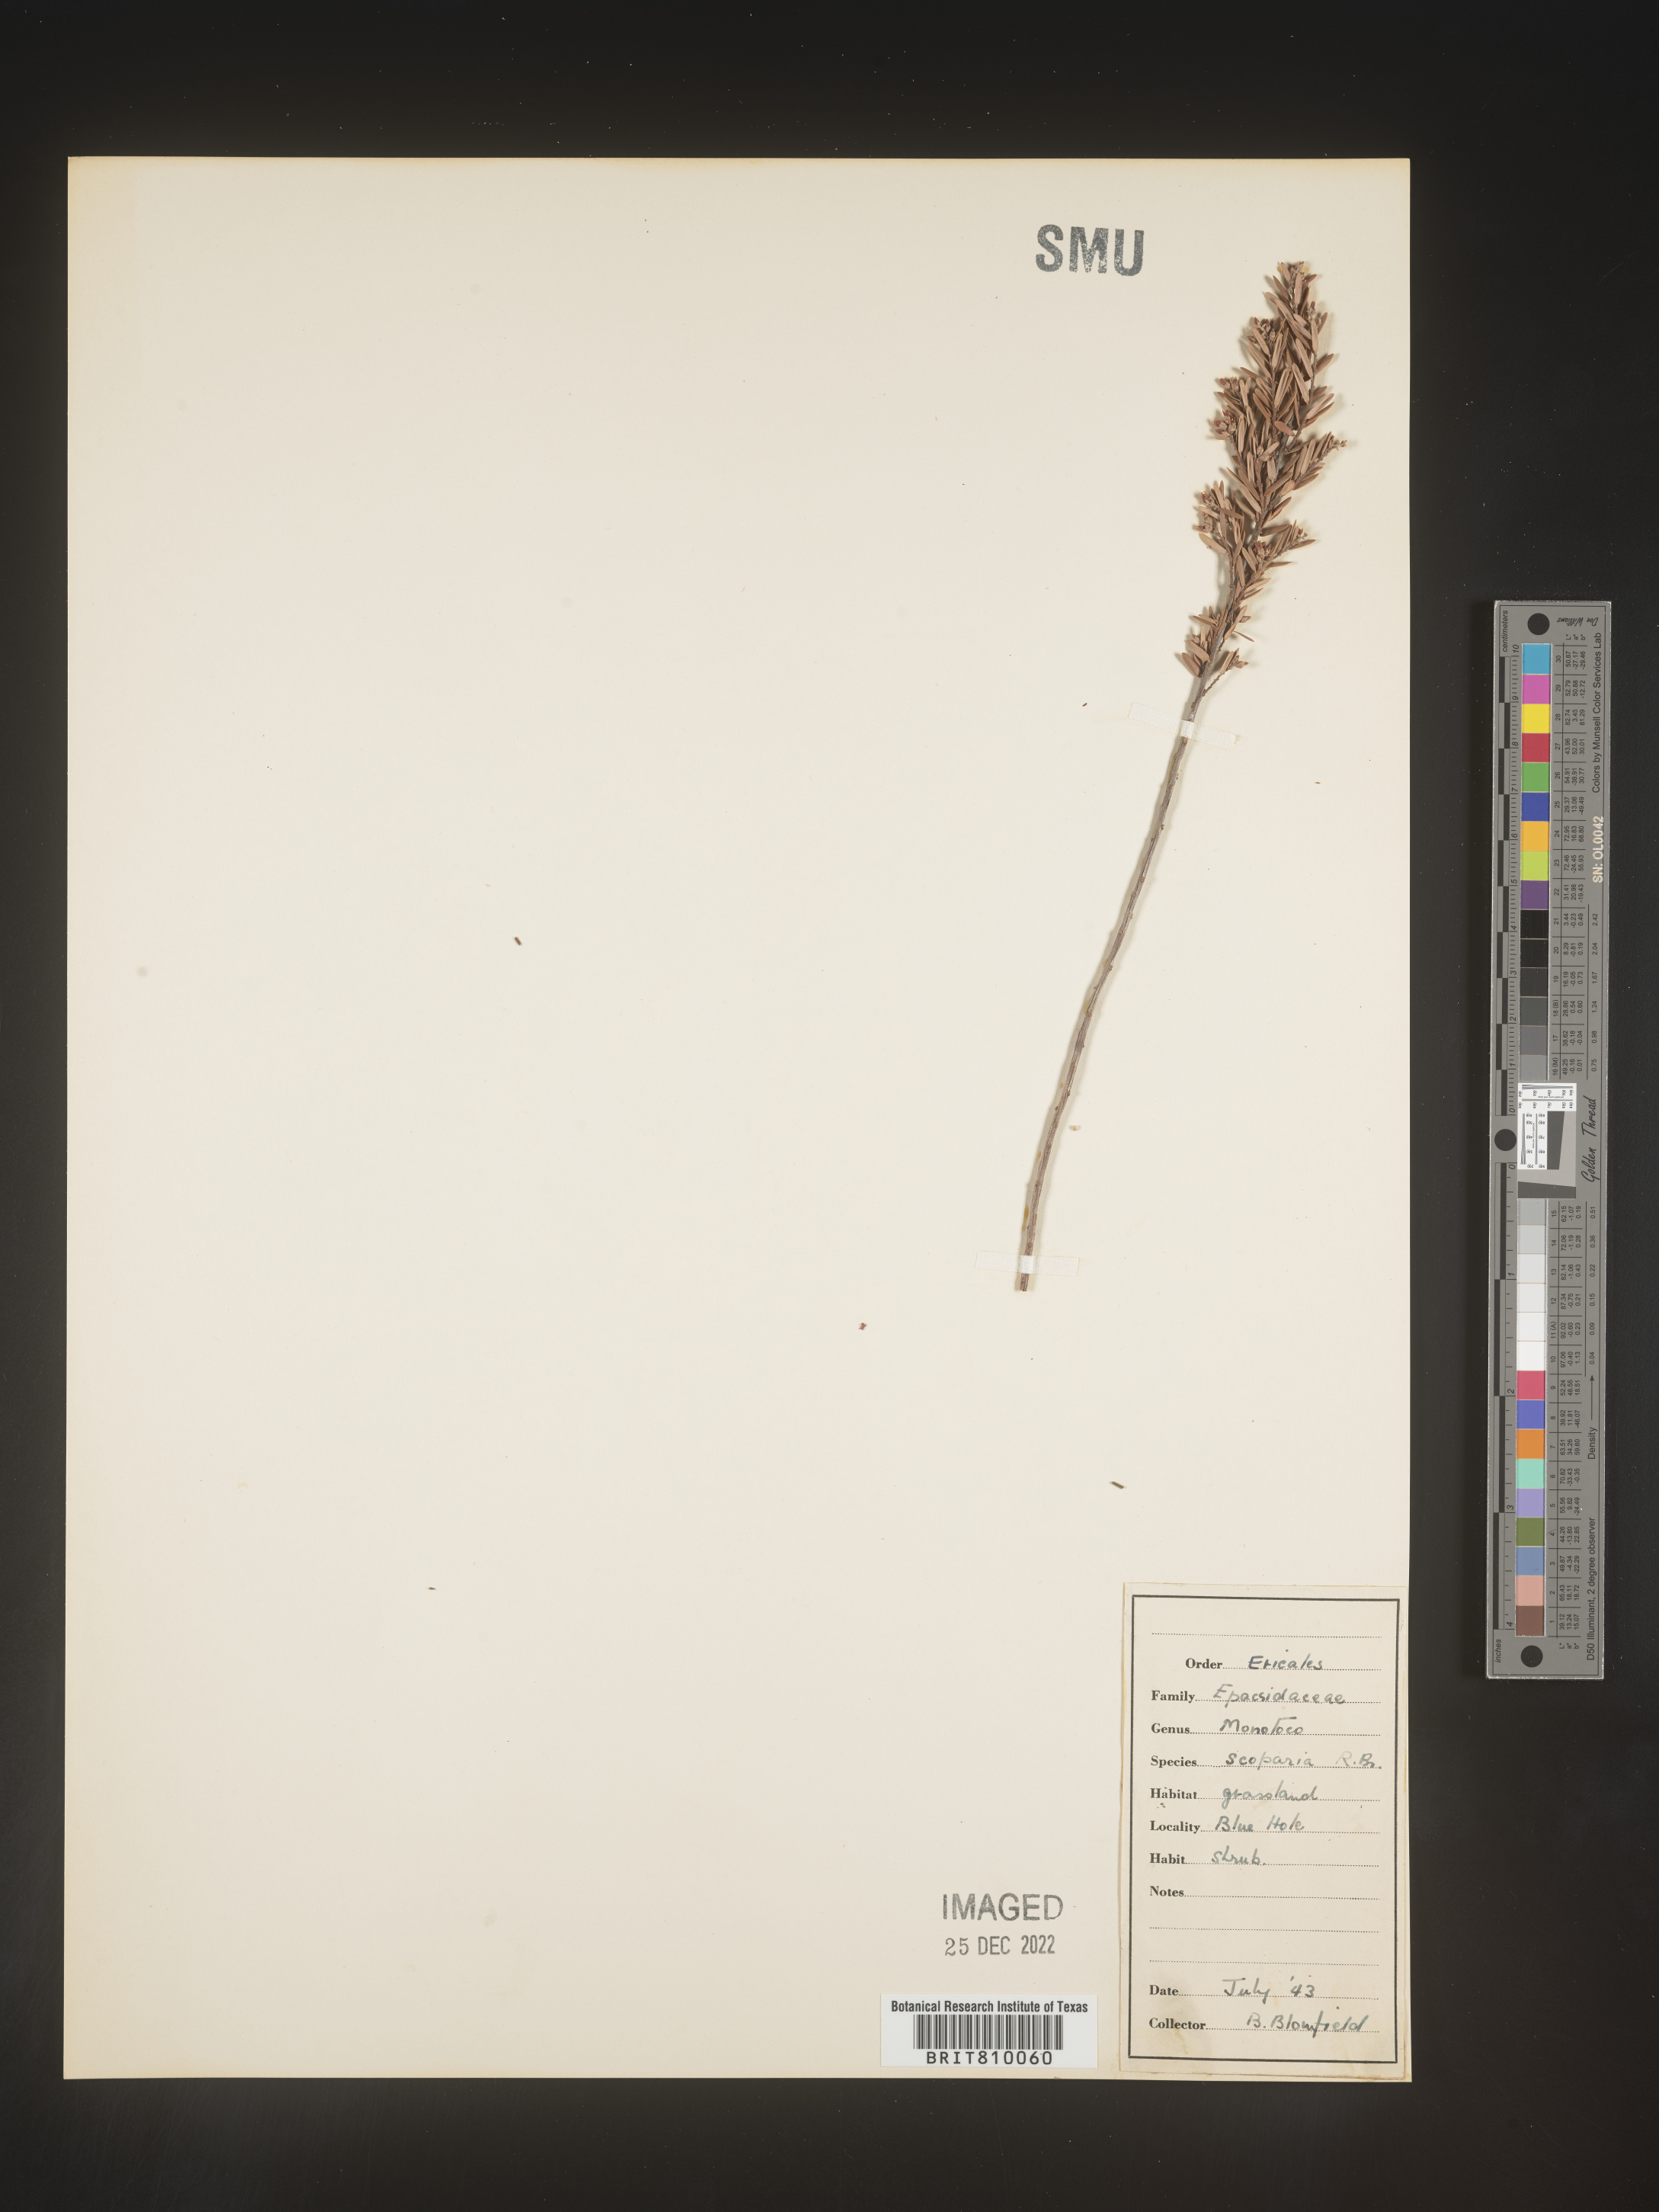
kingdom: Plantae
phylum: Tracheophyta
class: Magnoliopsida
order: Ericales
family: Ericaceae
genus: Monotoca
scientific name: Monotoca
